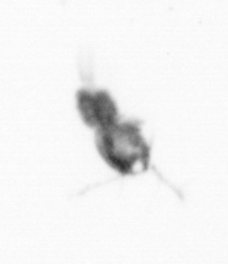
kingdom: Animalia
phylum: Arthropoda
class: Copepoda
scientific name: Copepoda
